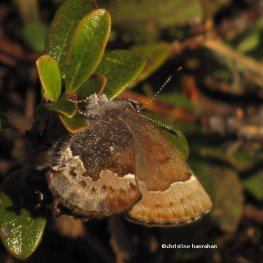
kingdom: Animalia
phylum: Arthropoda
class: Insecta
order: Lepidoptera
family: Lycaenidae
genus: Incisalia
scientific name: Incisalia henrici
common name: Henry's Elfin
